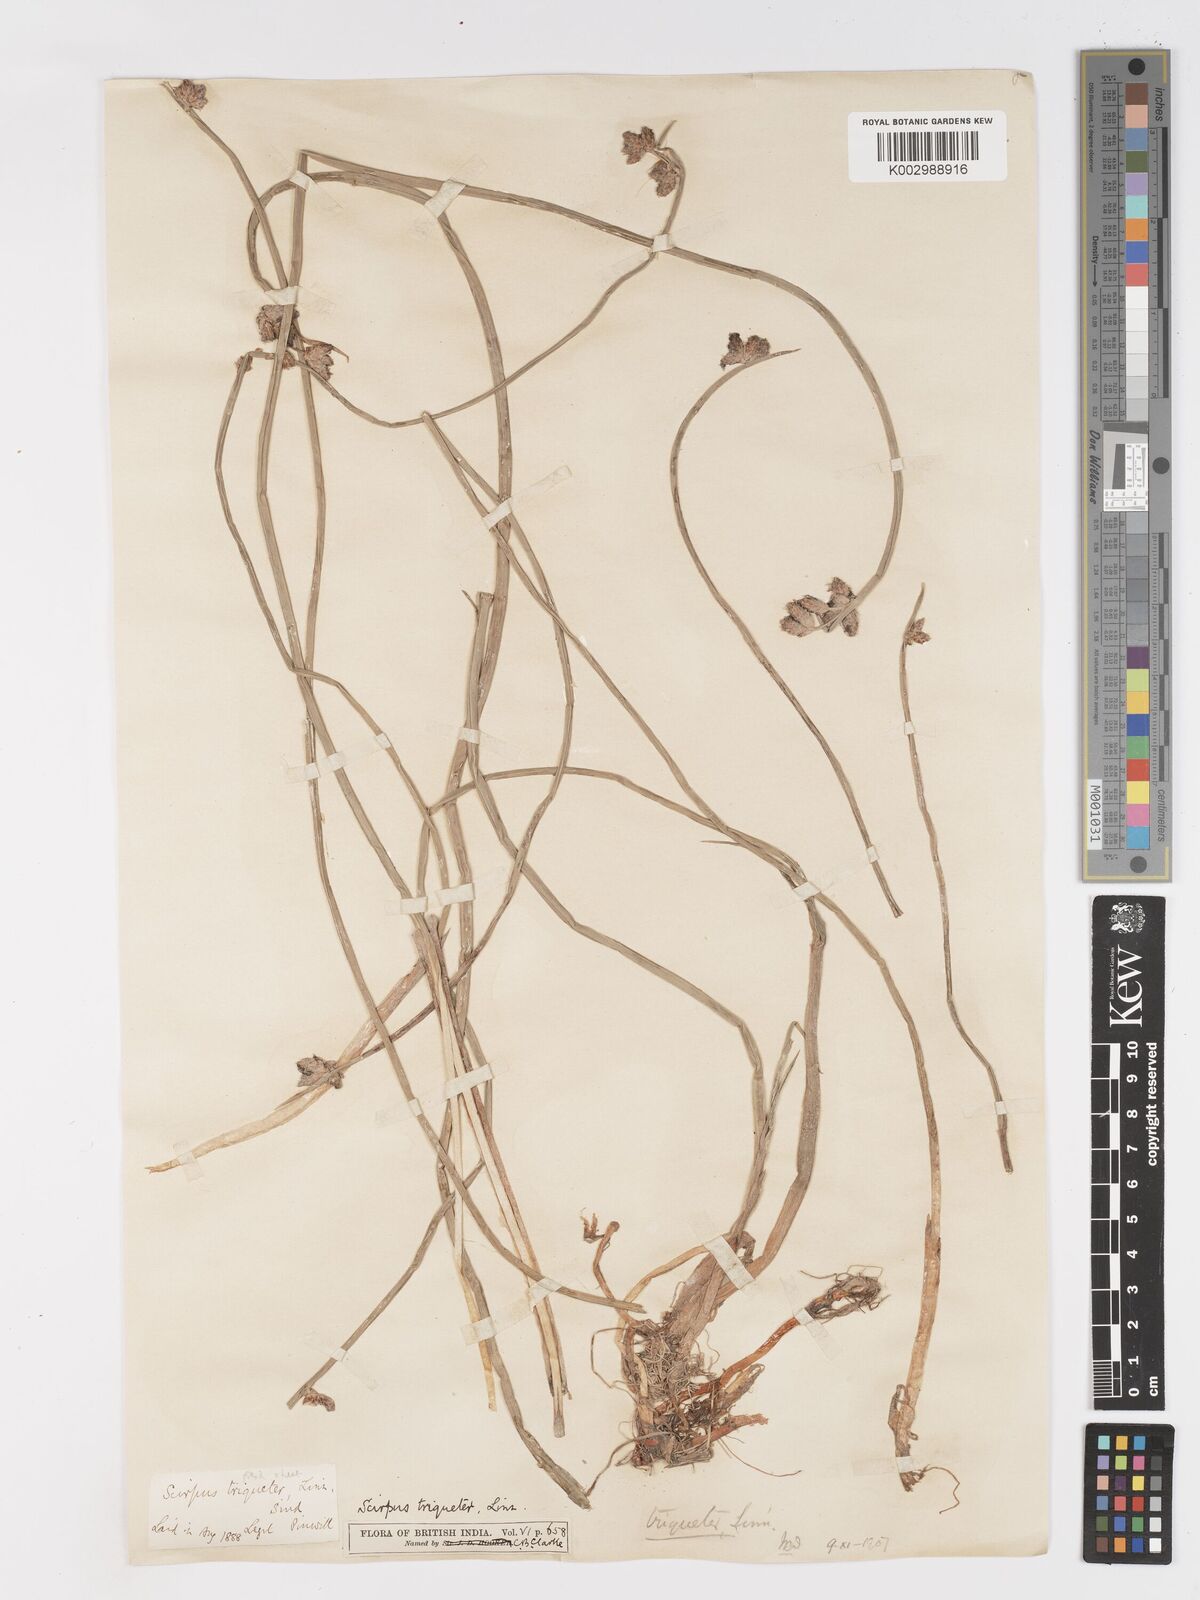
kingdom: Plantae
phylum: Tracheophyta
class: Liliopsida
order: Poales
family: Cyperaceae
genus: Schoenoplectus
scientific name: Schoenoplectus triqueter
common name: Triangular club-rush
